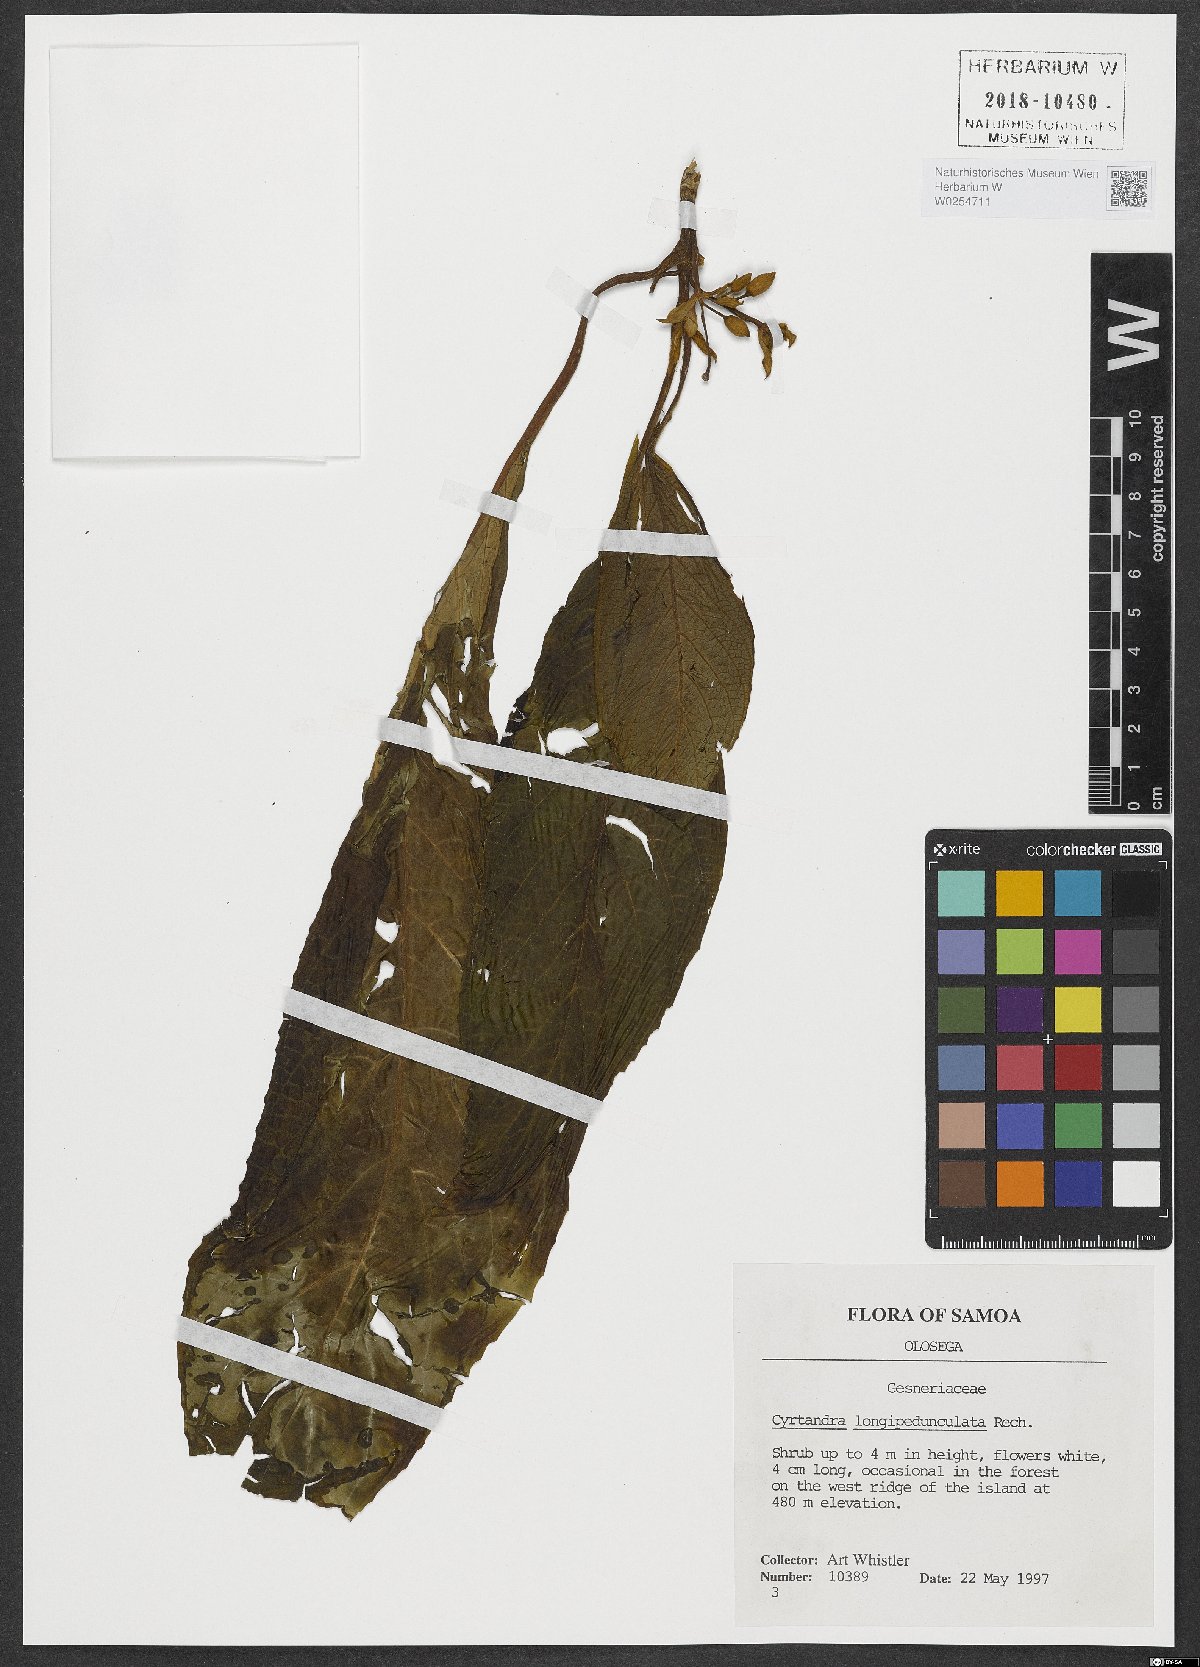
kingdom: Plantae
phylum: Tracheophyta
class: Magnoliopsida
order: Lamiales
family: Gesneriaceae
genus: Cyrtandra
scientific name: Cyrtandra longepedunculata
